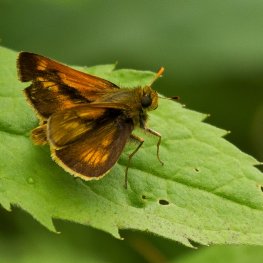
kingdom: Animalia
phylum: Arthropoda
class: Insecta
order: Lepidoptera
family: Hesperiidae
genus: Polites
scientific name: Polites
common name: Long Dash Skipper
